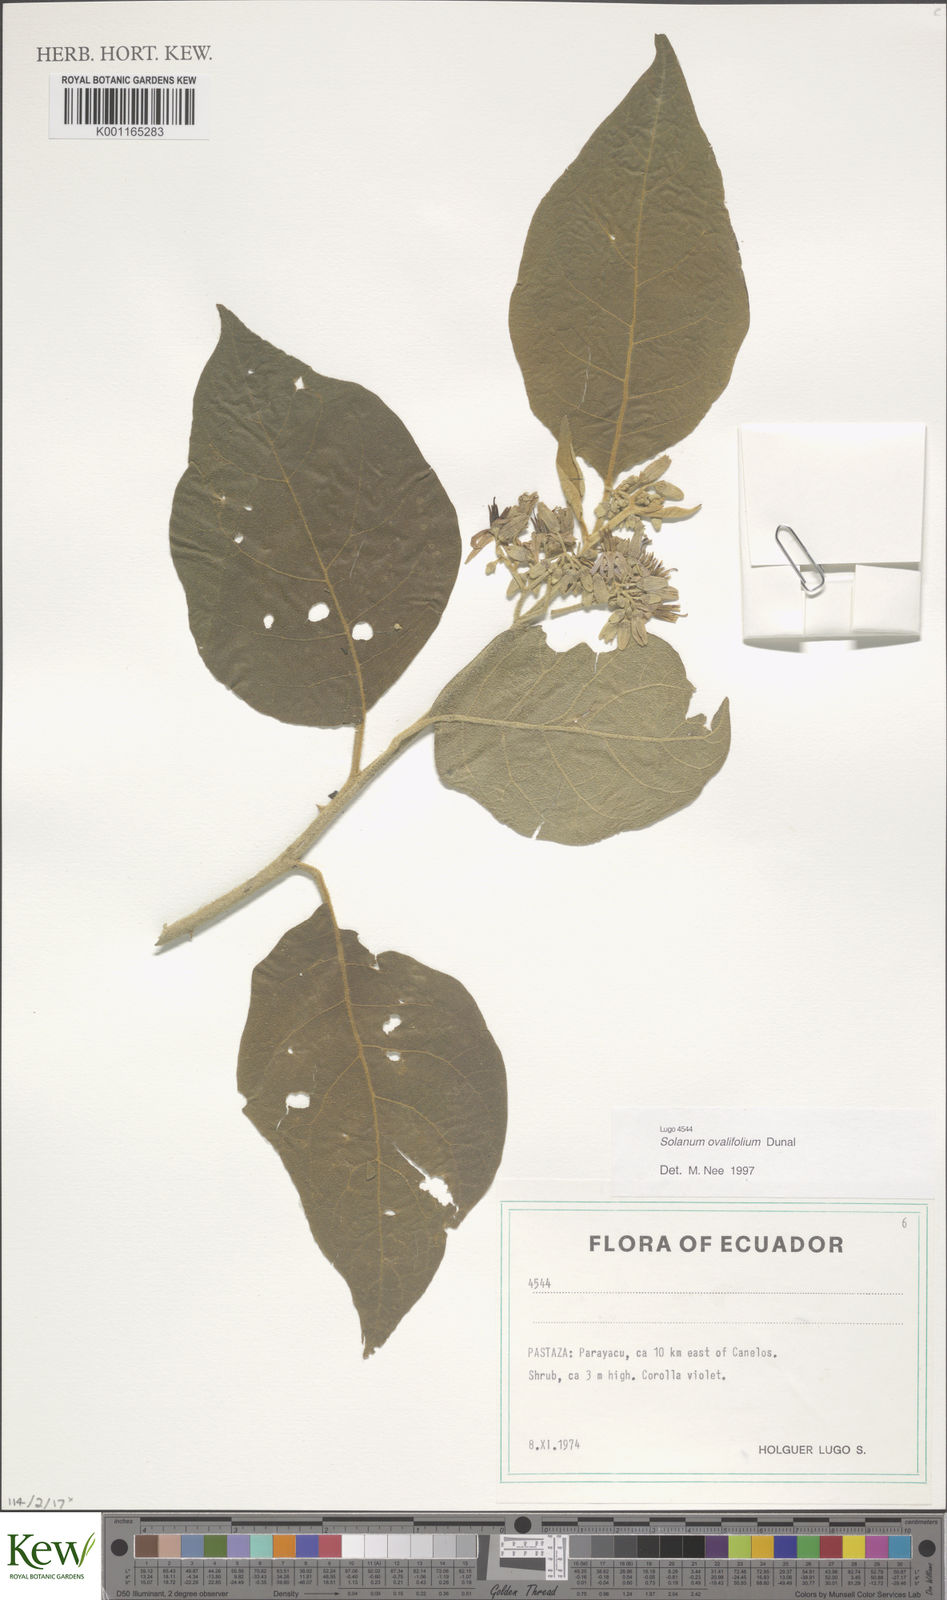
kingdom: Plantae
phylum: Tracheophyta
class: Magnoliopsida
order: Solanales
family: Solanaceae
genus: Solanum
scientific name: Solanum ovalifolium
